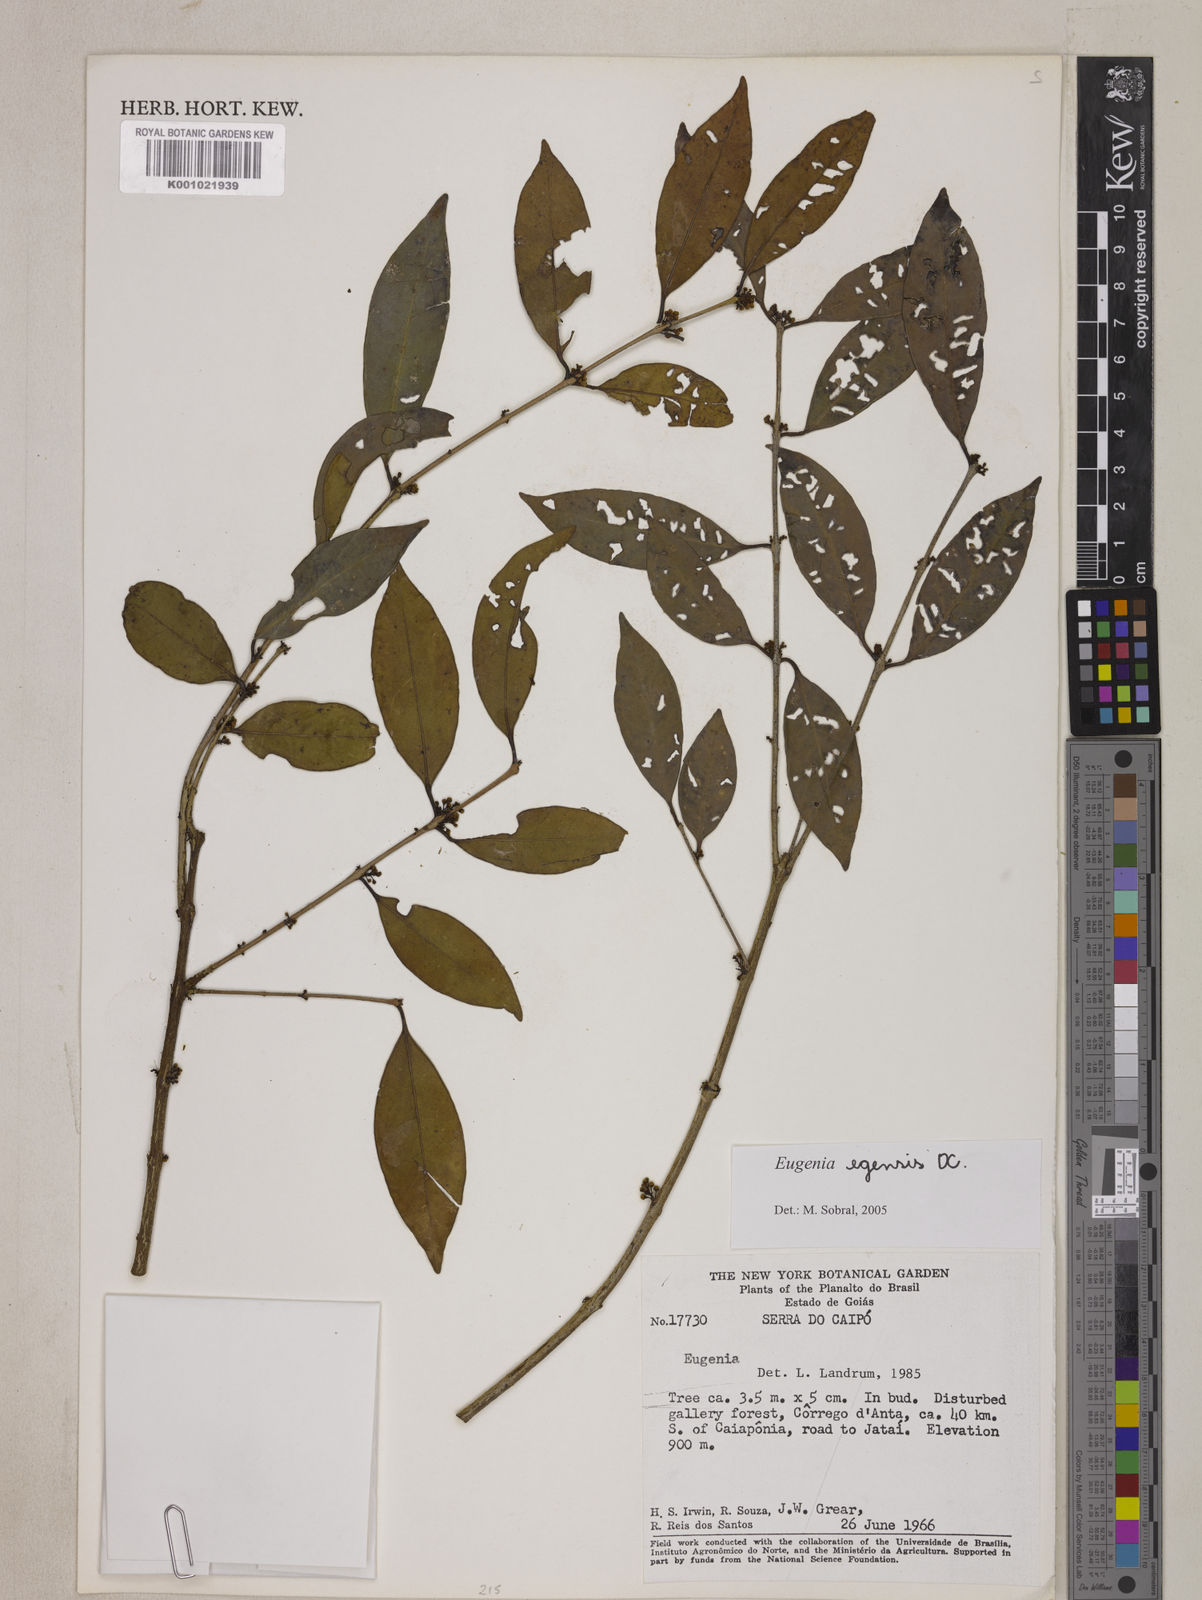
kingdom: Plantae
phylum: Tracheophyta
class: Magnoliopsida
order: Myrtales
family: Myrtaceae
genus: Eugenia
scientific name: Eugenia egensis
